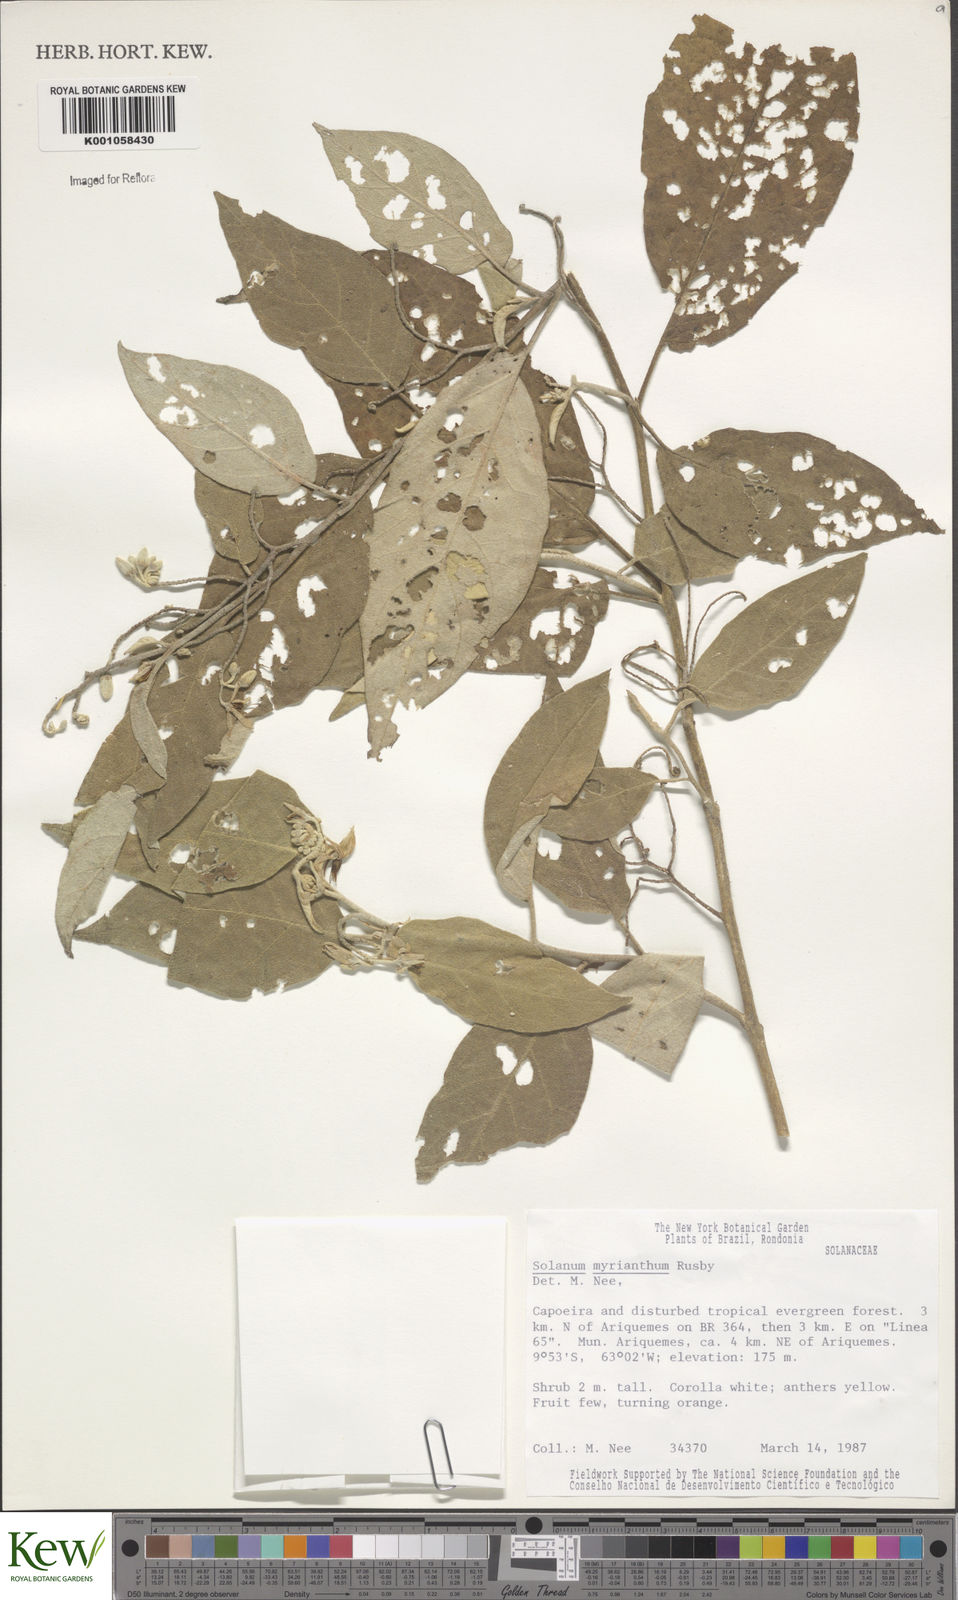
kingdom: Plantae
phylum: Tracheophyta
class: Magnoliopsida
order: Solanales
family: Solanaceae
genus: Solanum
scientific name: Solanum
